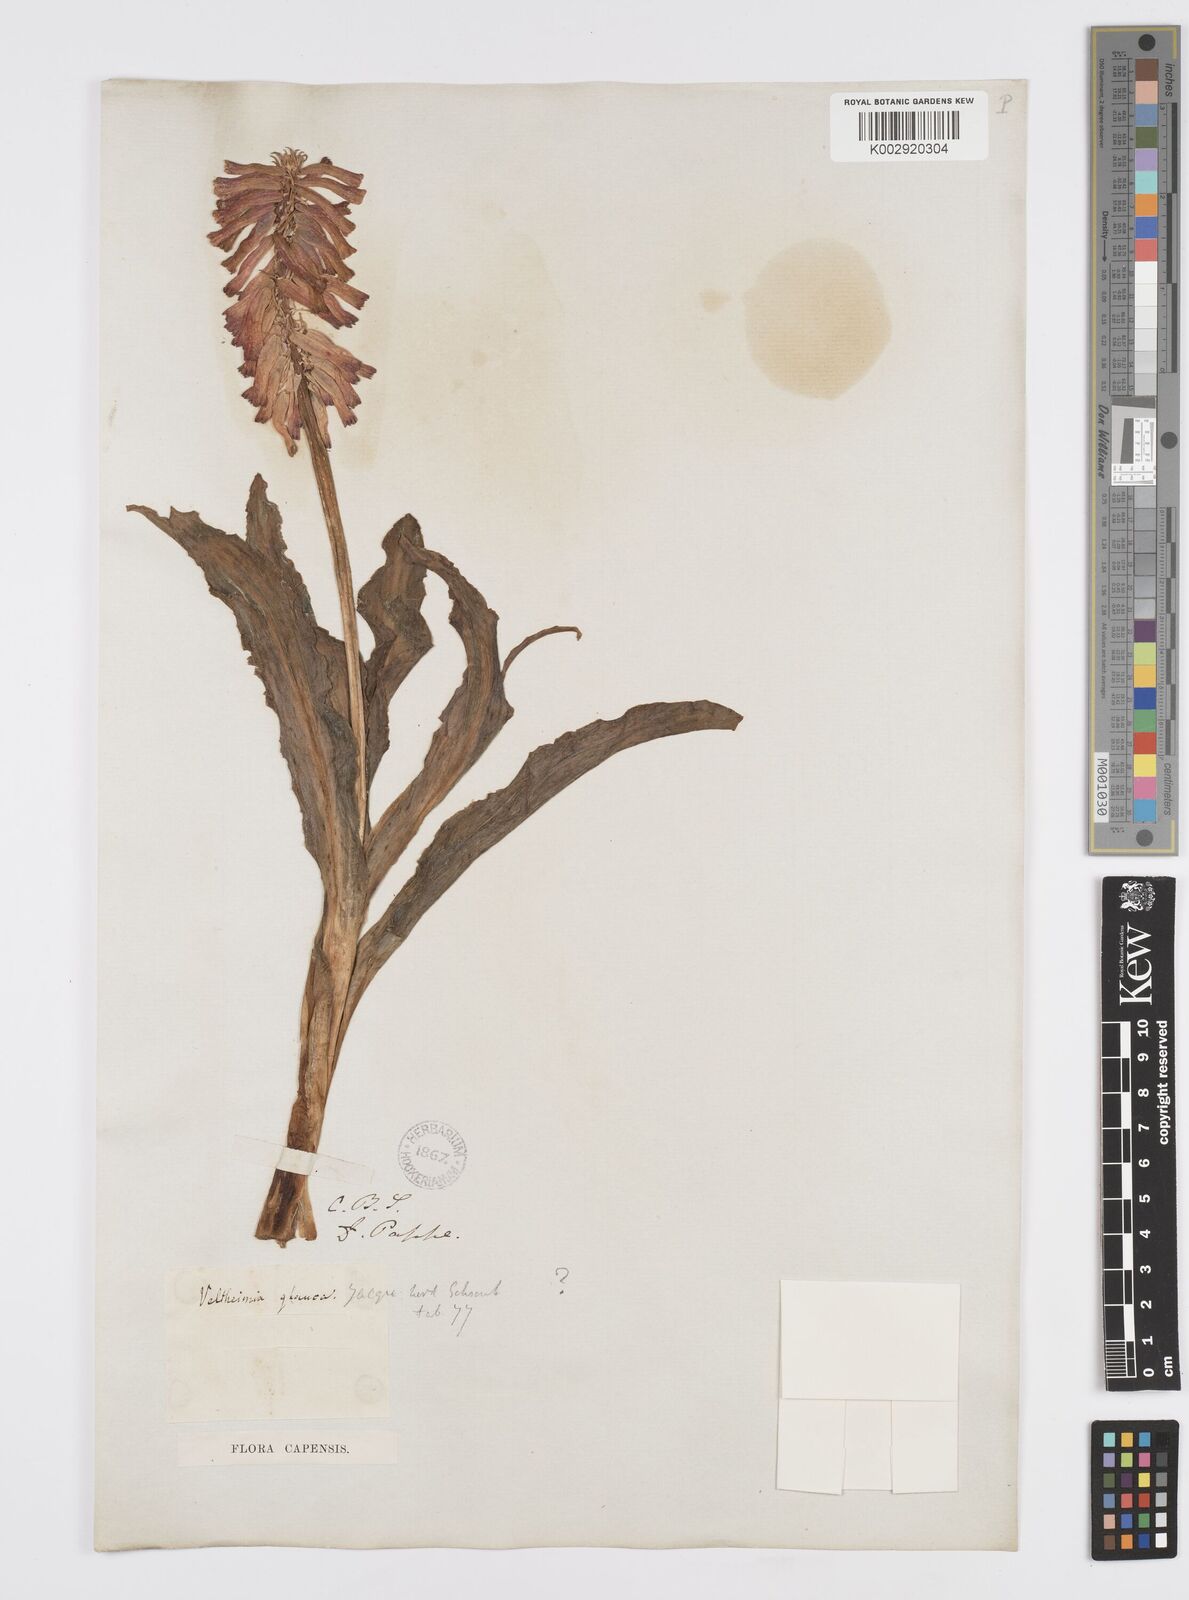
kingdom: Plantae
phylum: Tracheophyta
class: Liliopsida
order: Asparagales
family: Asparagaceae
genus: Veltheimia
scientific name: Veltheimia capensis
